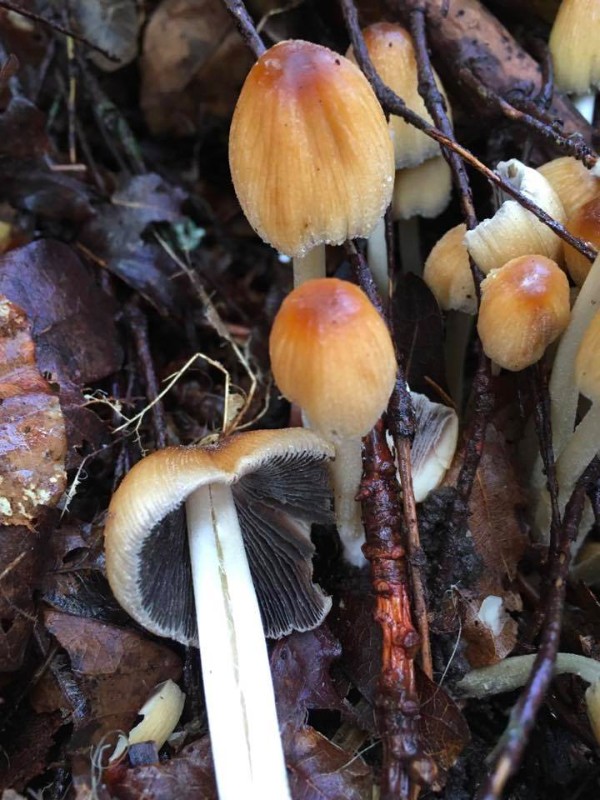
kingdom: Fungi
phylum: Basidiomycota
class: Agaricomycetes
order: Agaricales
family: Psathyrellaceae
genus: Coprinellus
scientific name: Coprinellus micaceus
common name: glimmer-blækhat
